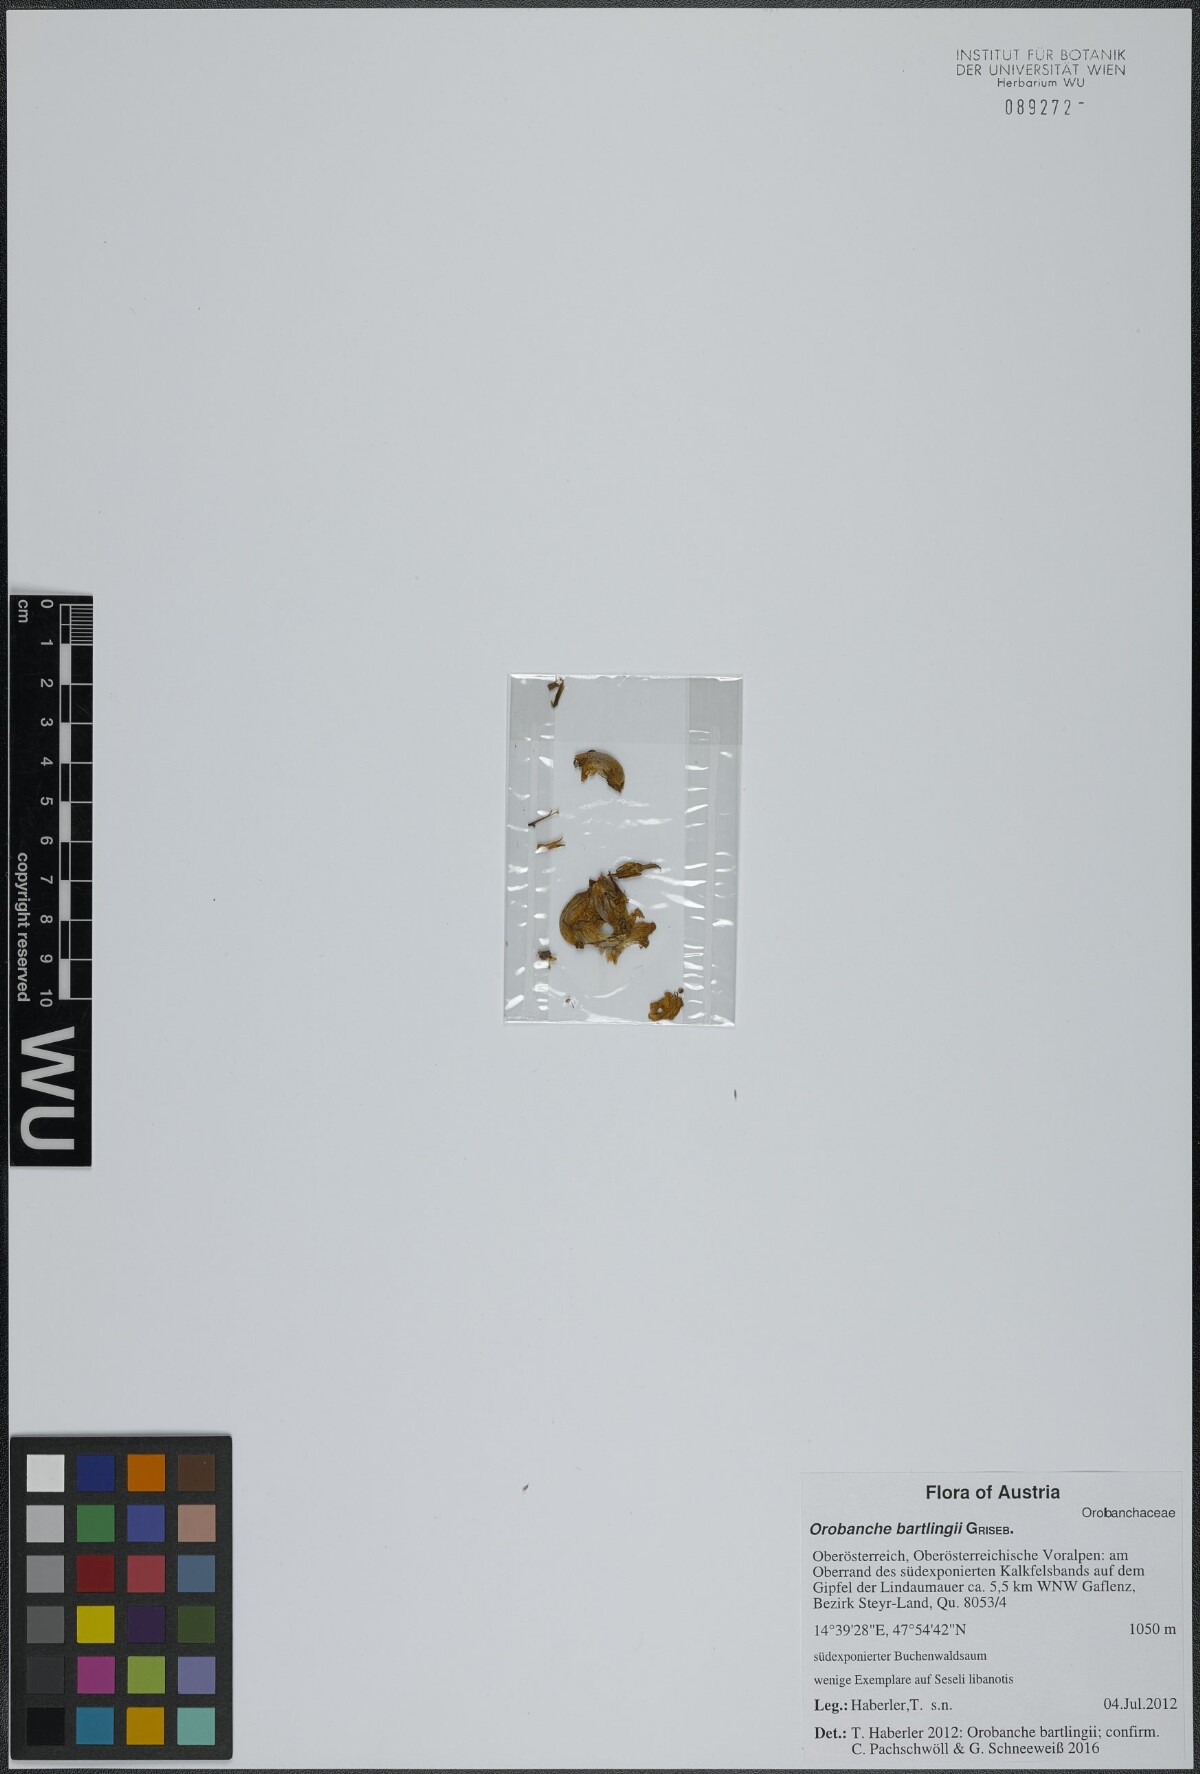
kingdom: Plantae
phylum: Tracheophyta
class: Magnoliopsida
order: Lamiales
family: Orobanchaceae
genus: Orobanche
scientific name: Orobanche alsatica
